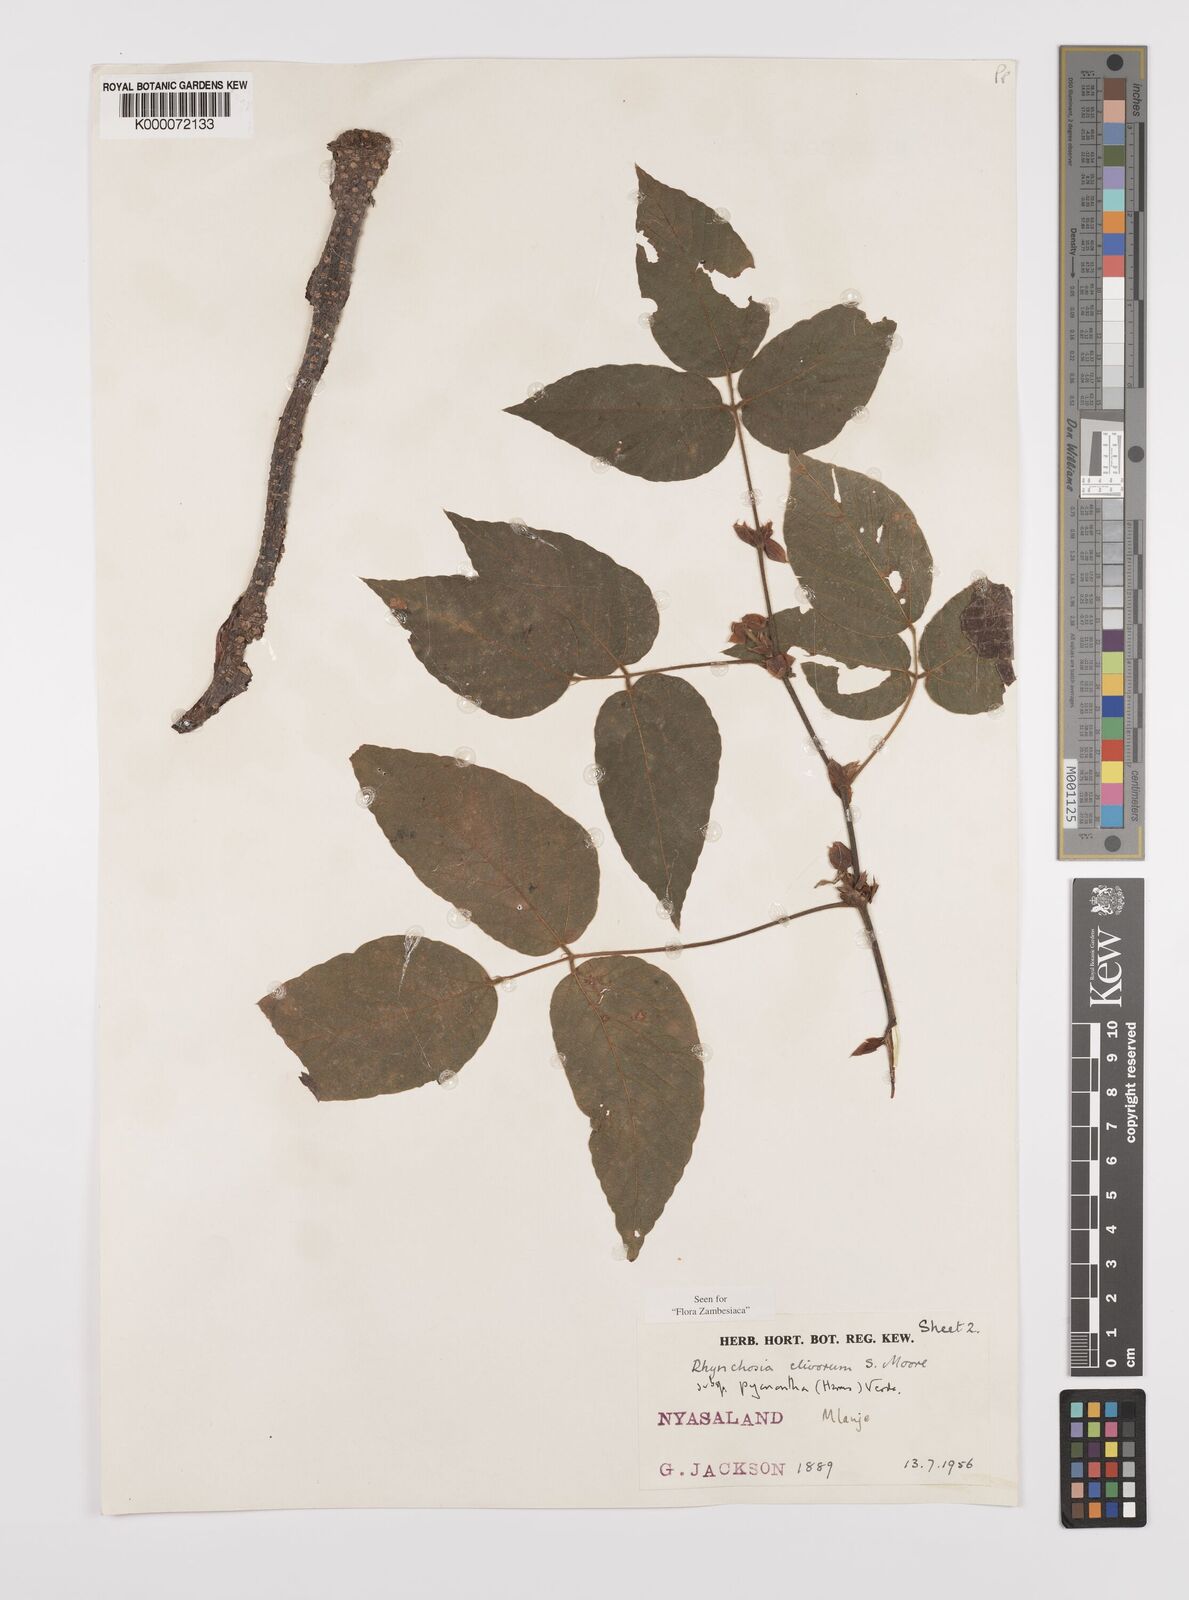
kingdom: Plantae
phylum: Tracheophyta
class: Magnoliopsida
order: Fabales
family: Fabaceae
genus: Rhynchosia
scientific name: Rhynchosia clivorum
